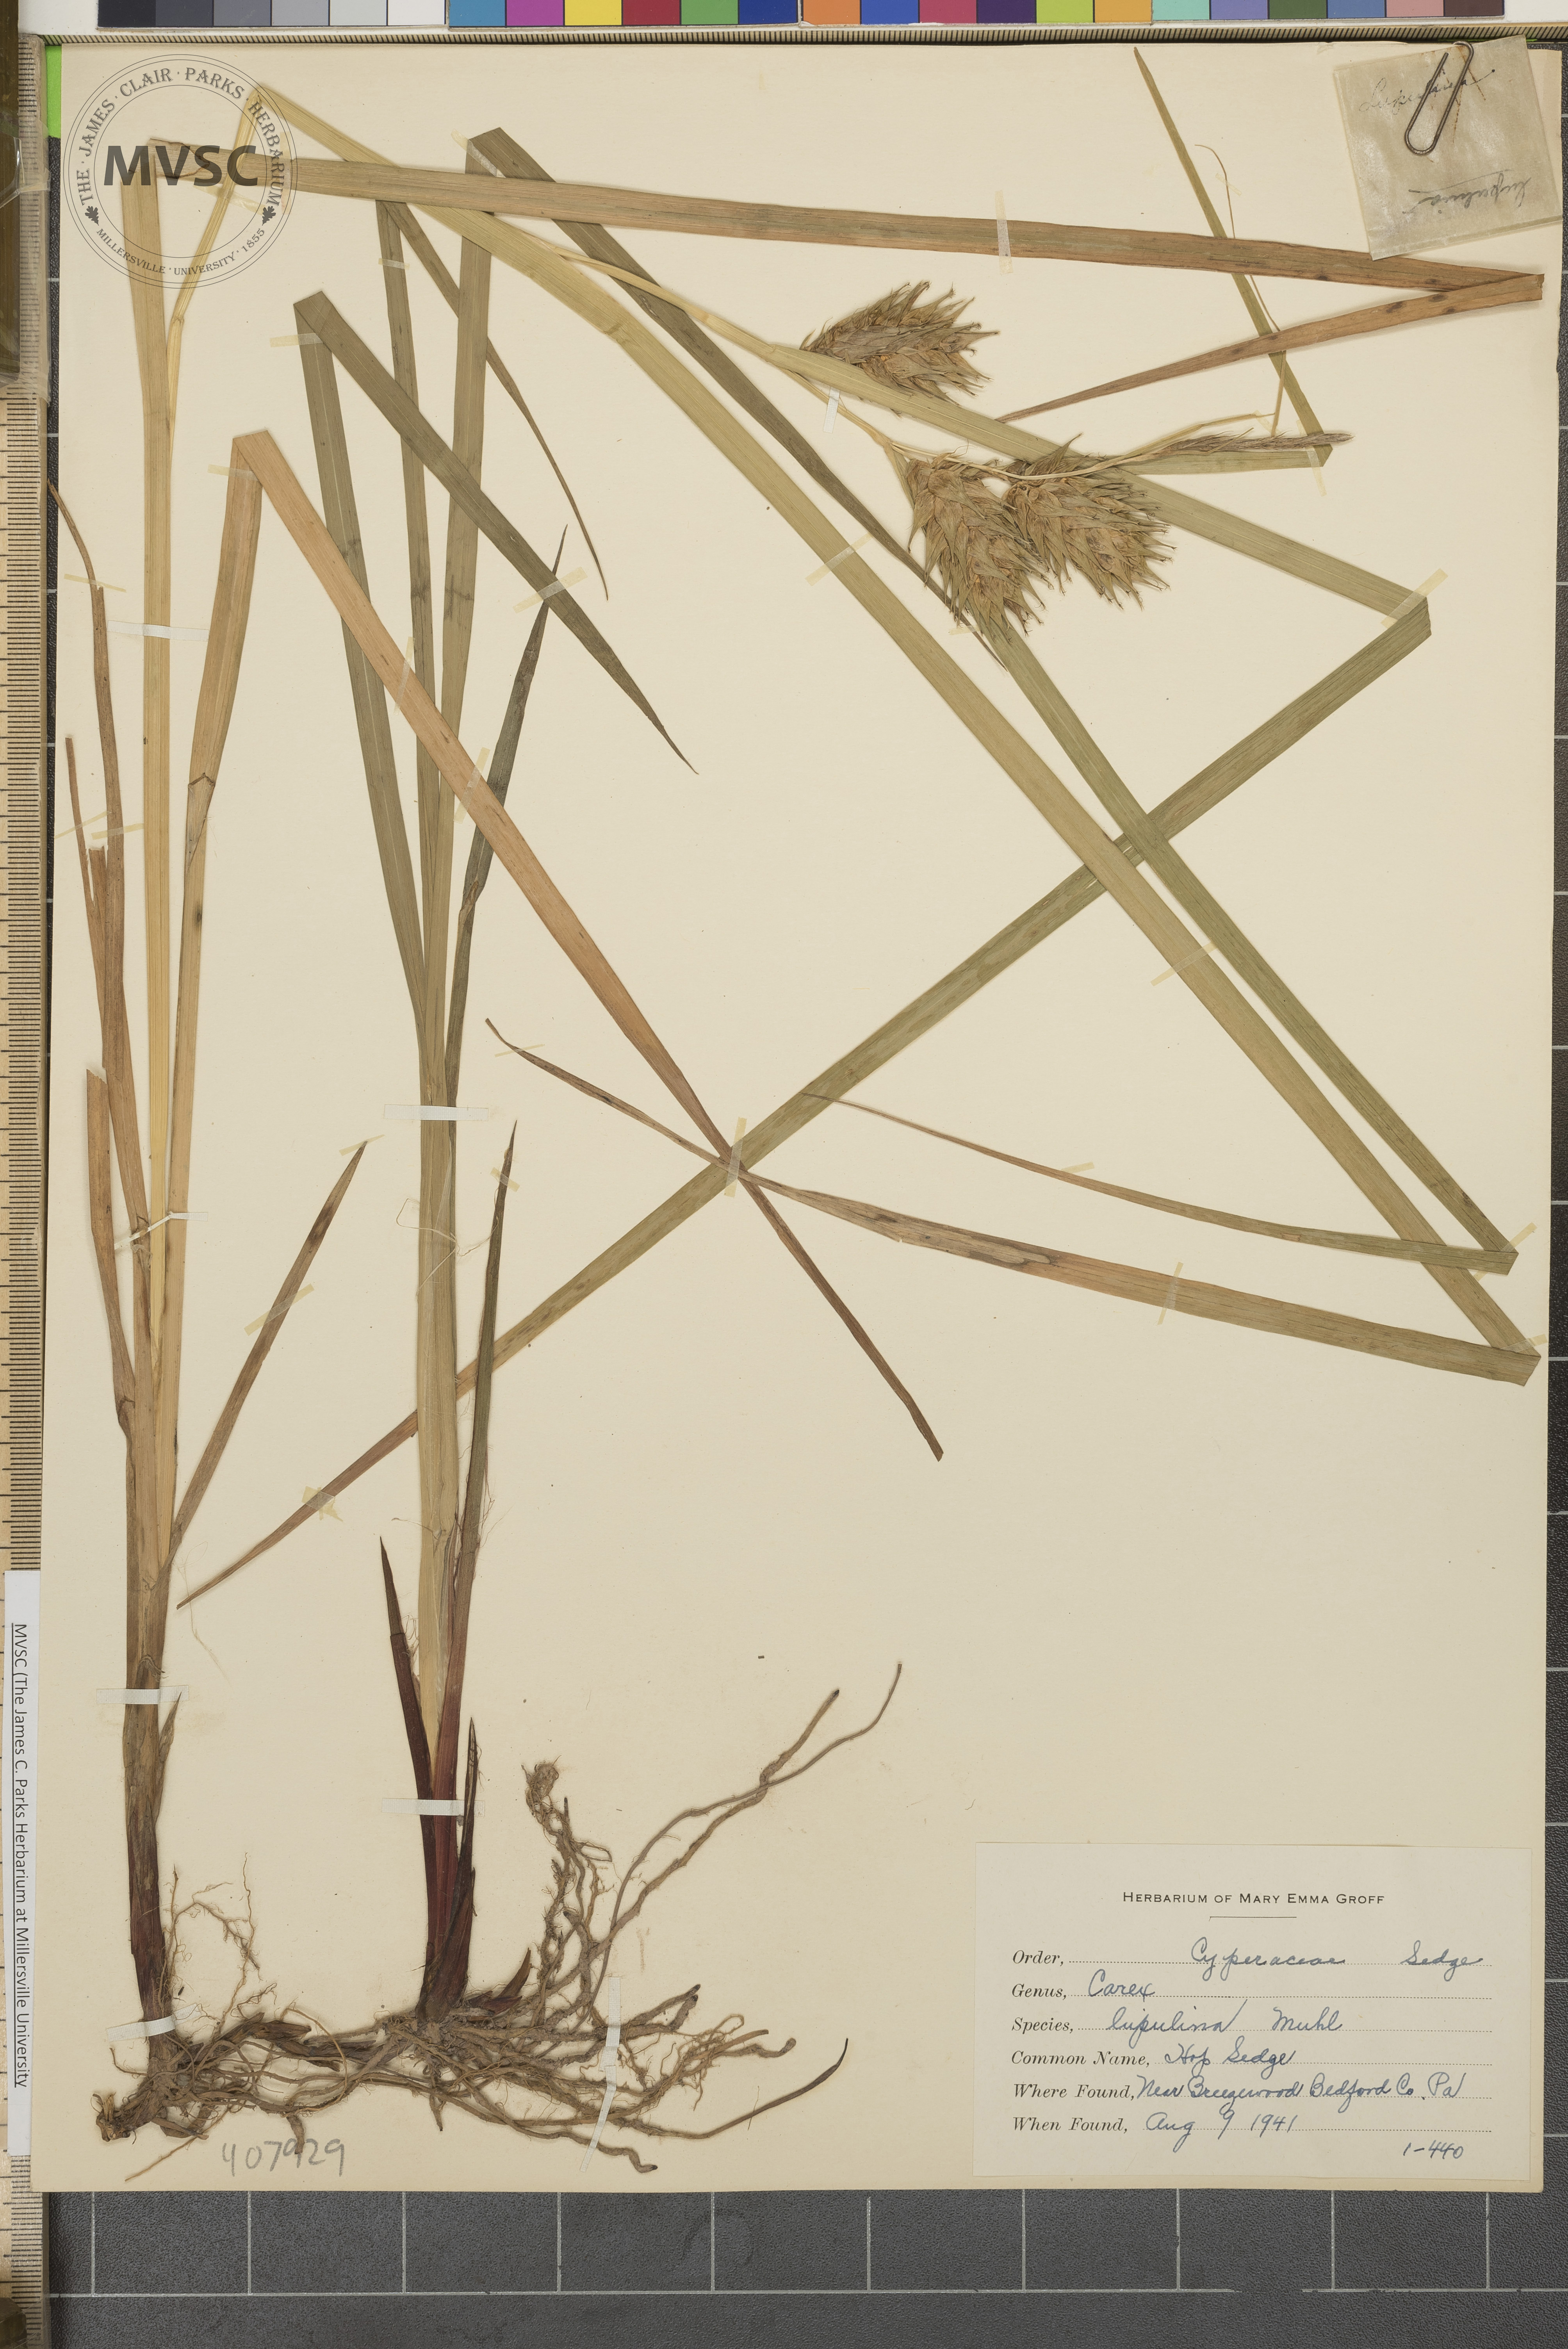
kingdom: Plantae
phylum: Tracheophyta
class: Liliopsida
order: Poales
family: Cyperaceae
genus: Carex
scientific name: Carex lupulina
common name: Hop Sedge
